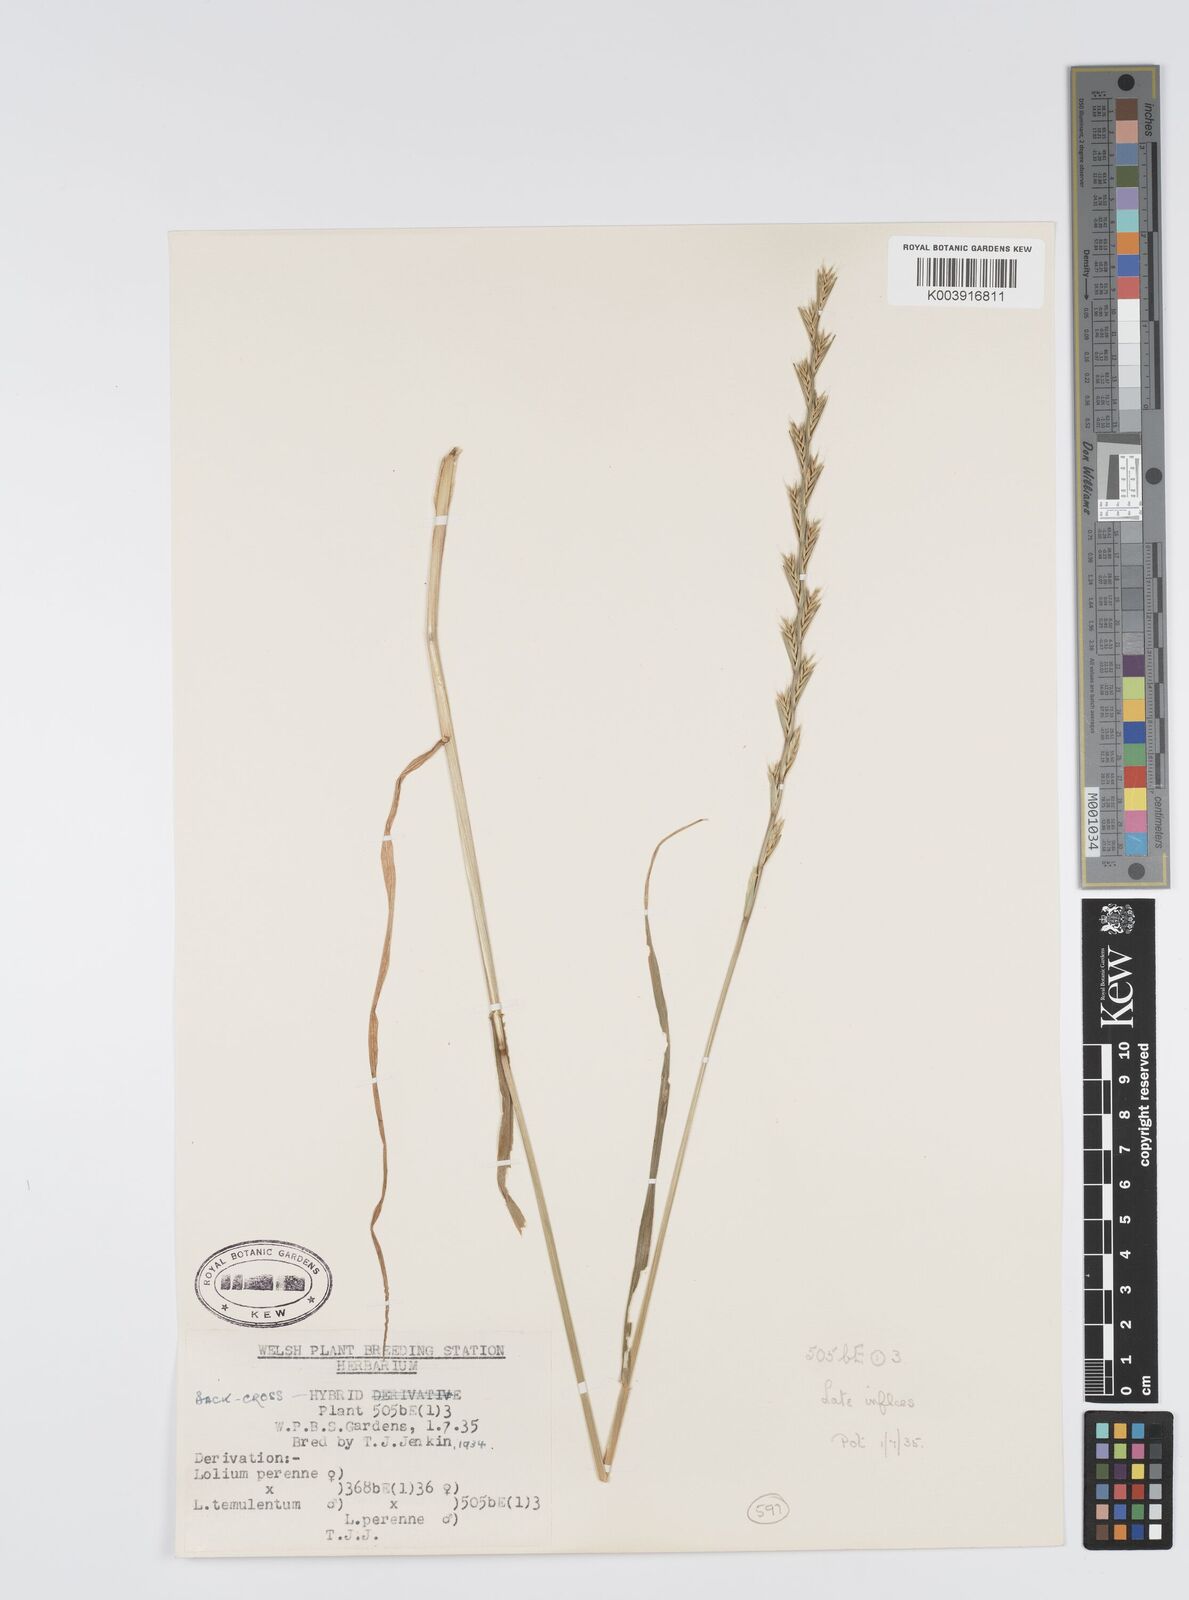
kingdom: Plantae
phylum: Tracheophyta
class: Liliopsida
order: Poales
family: Poaceae
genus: Lolium
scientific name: Lolium perenne
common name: Perennial ryegrass
